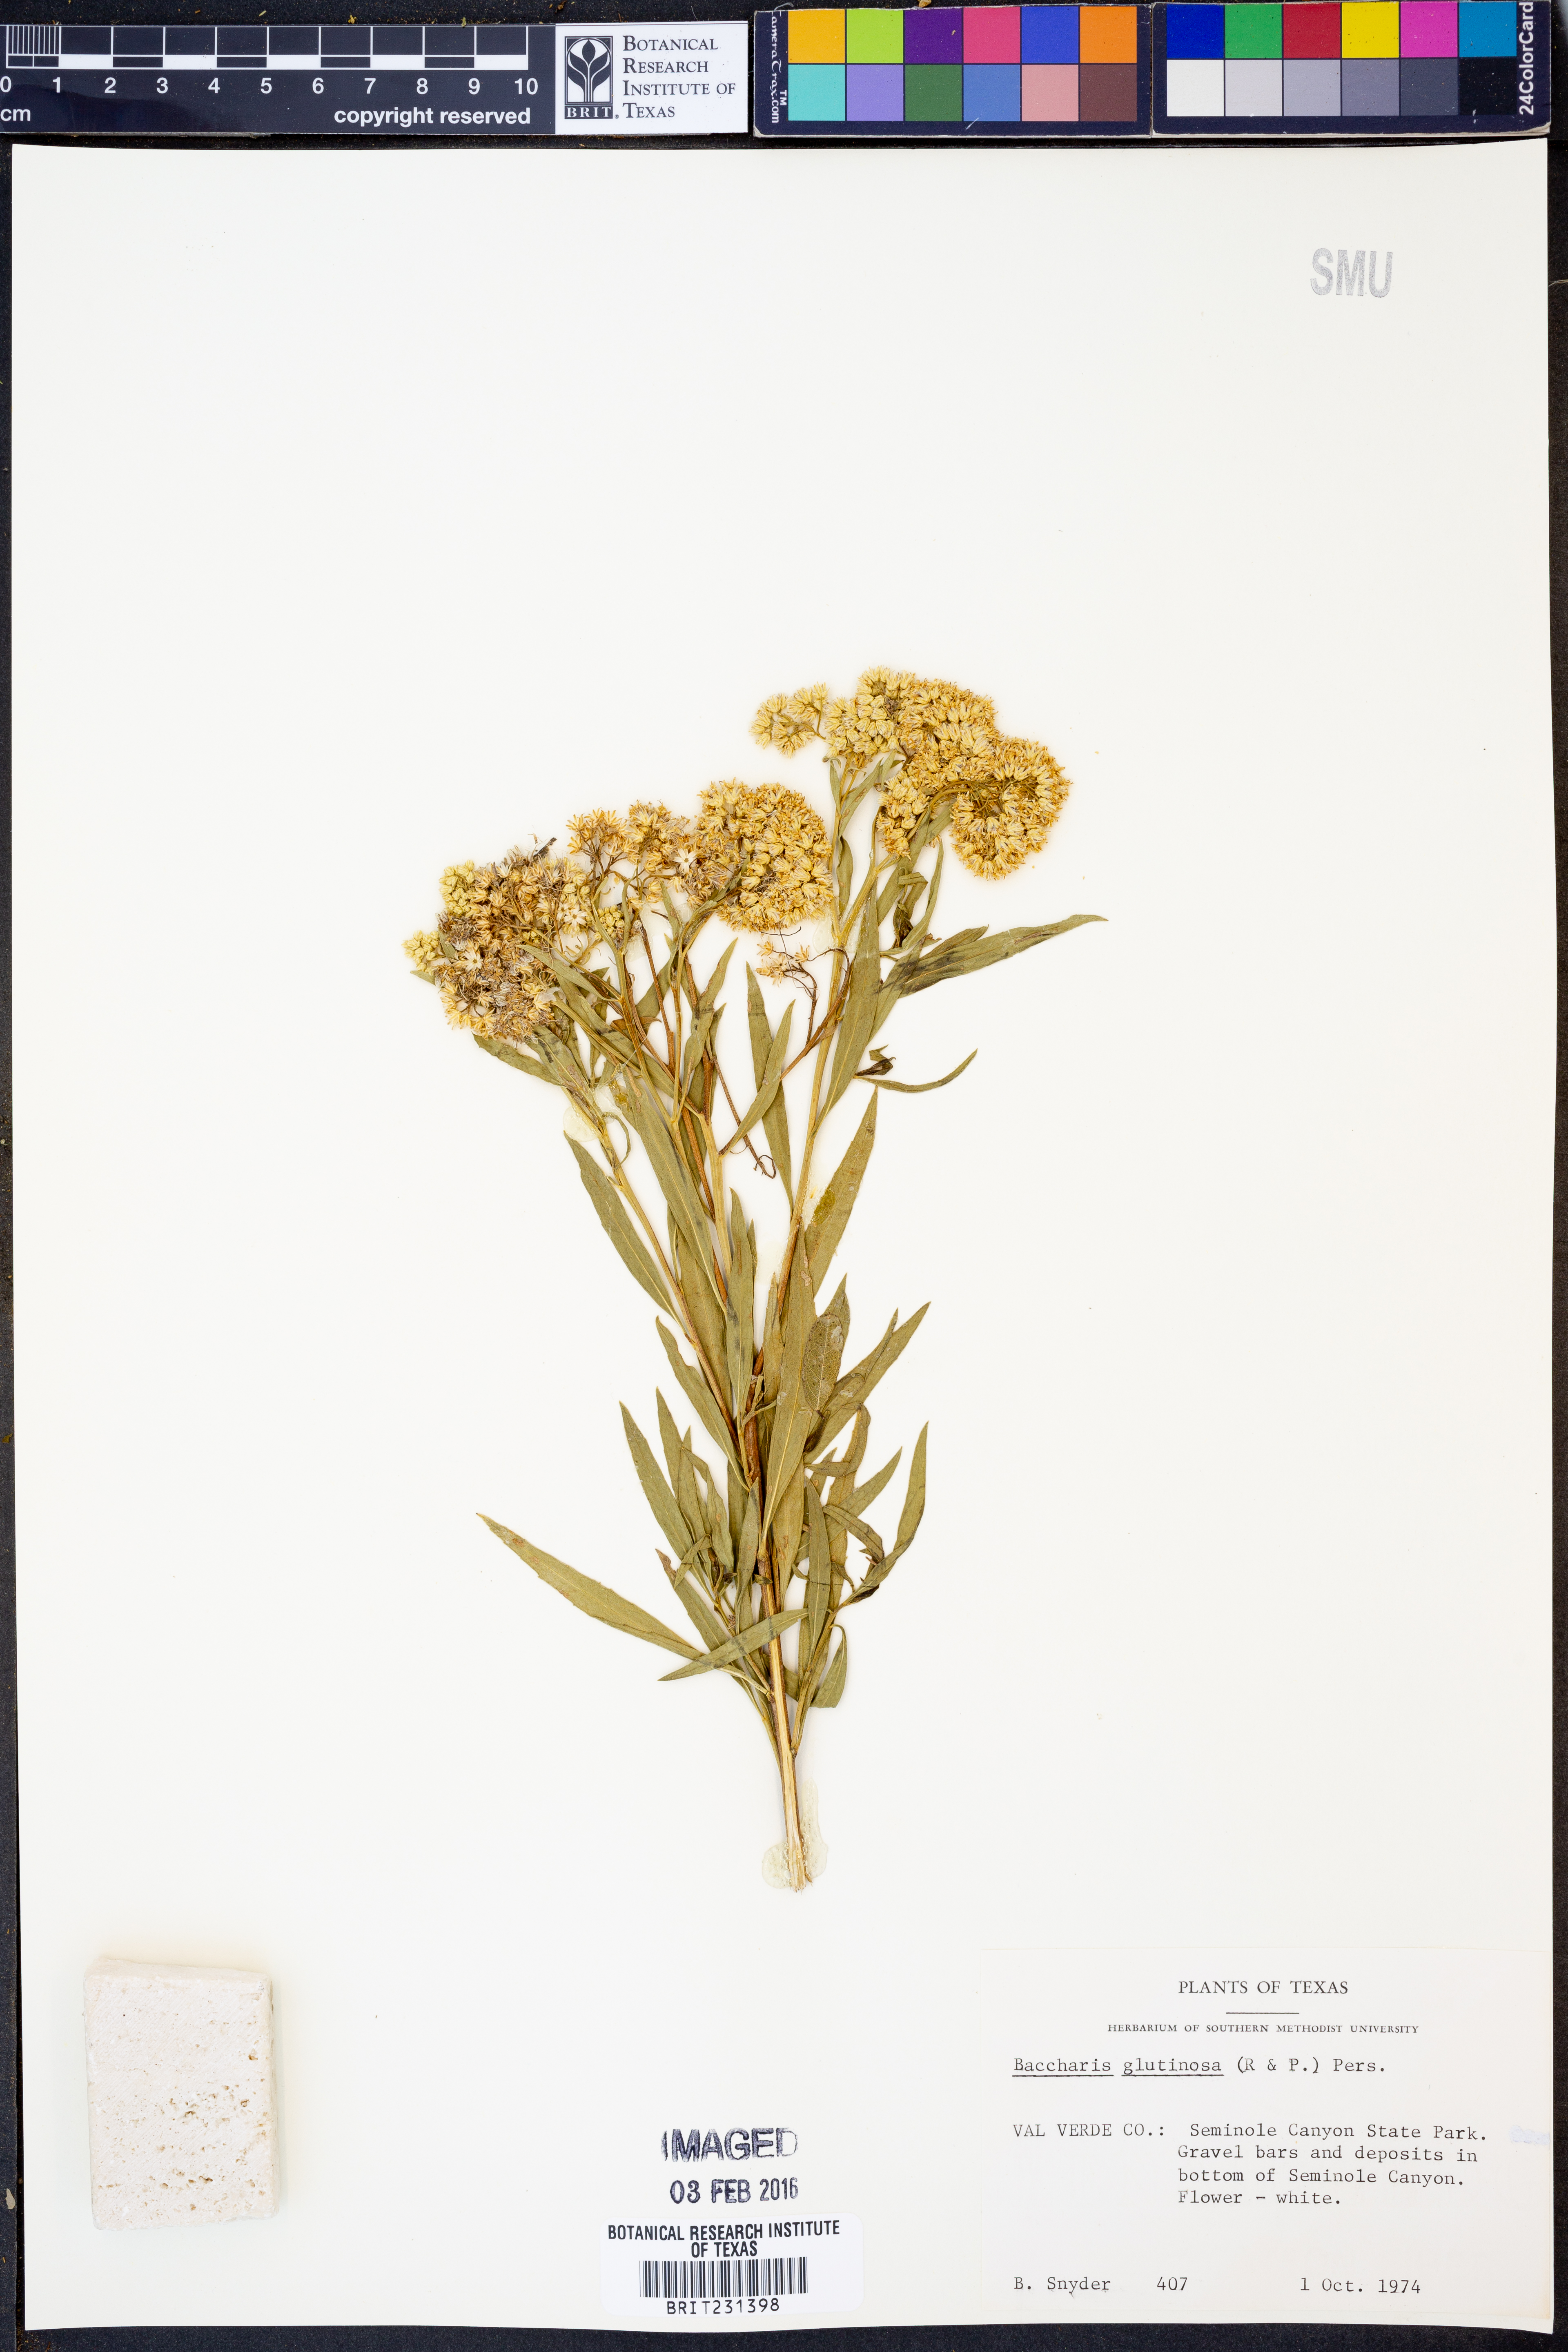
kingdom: Plantae
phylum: Tracheophyta
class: Magnoliopsida
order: Asterales
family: Asteraceae
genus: Baccharis
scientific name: Baccharis glutinosa
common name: Saltmarsh baccharis
